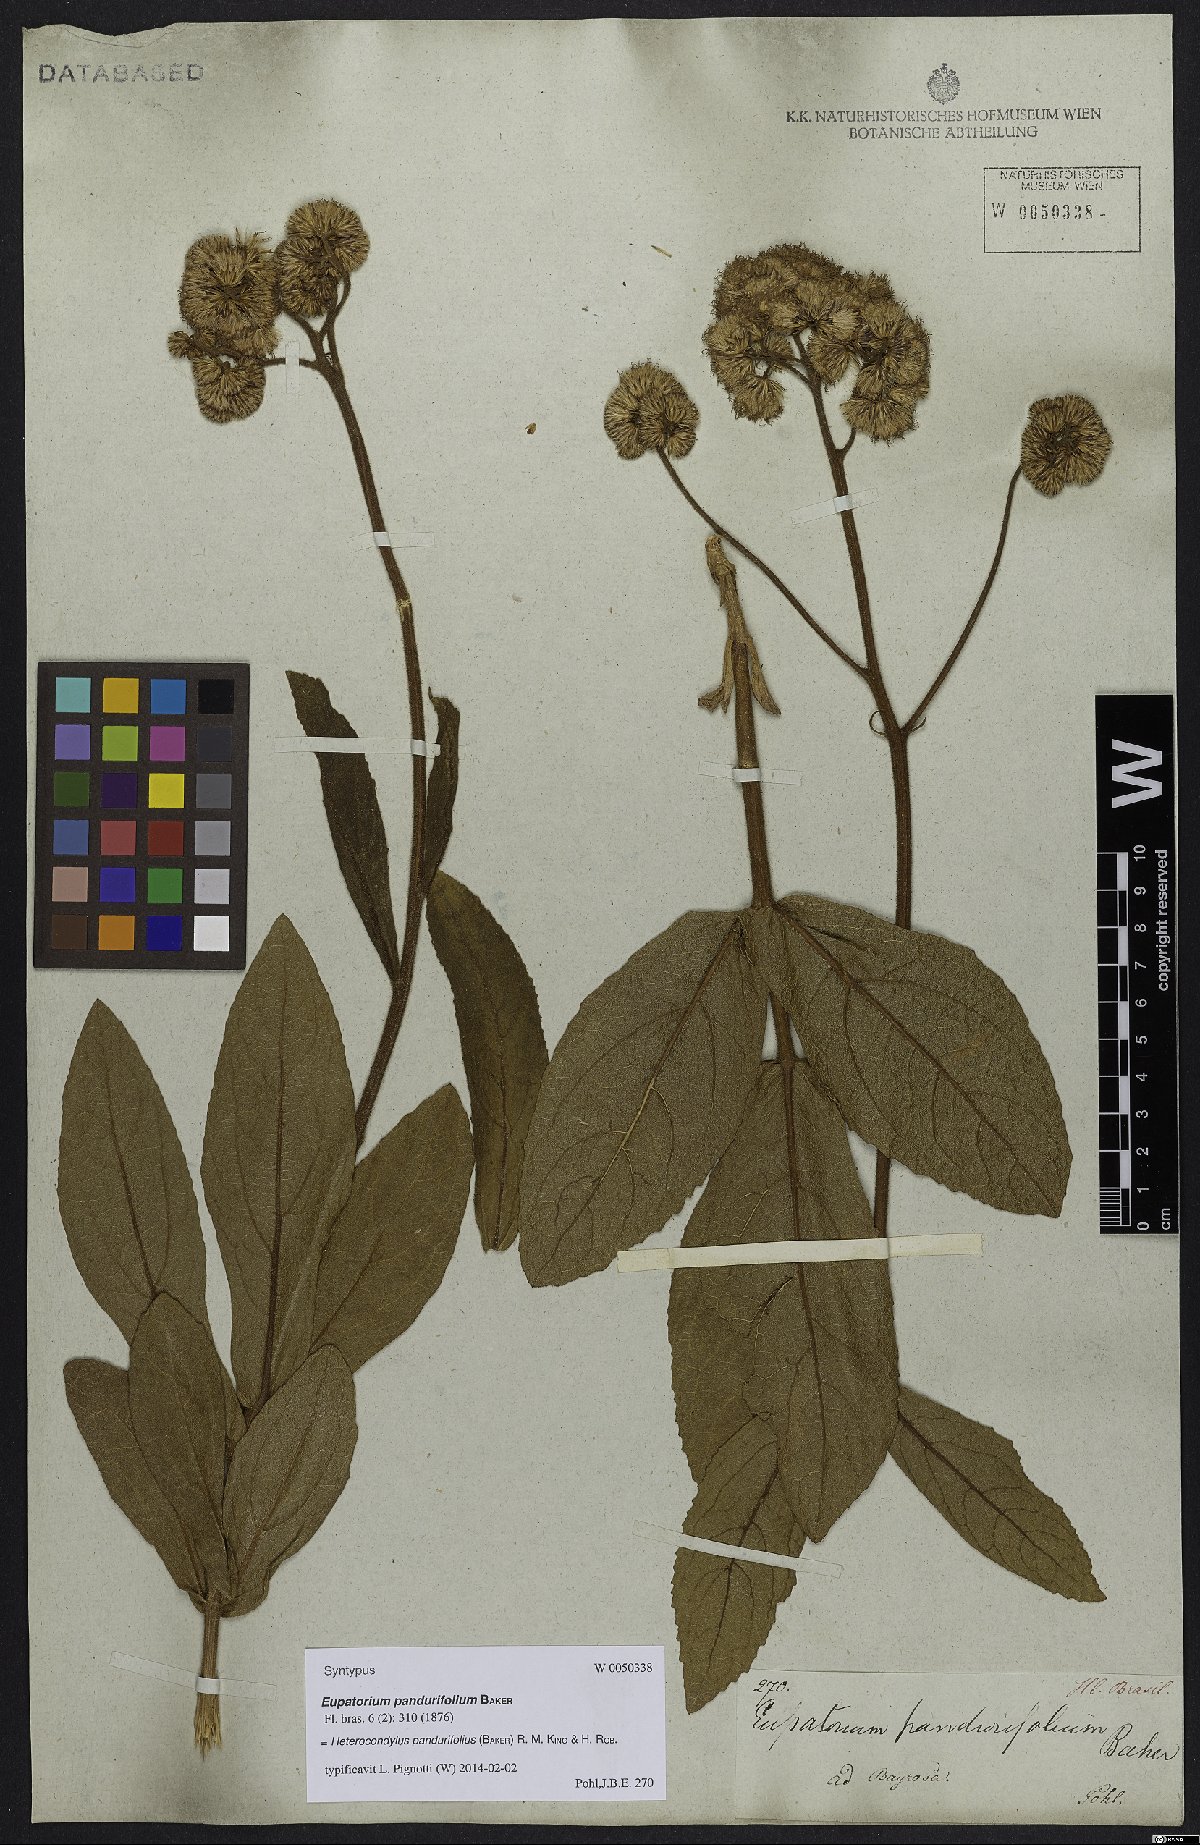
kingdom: Plantae
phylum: Tracheophyta
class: Magnoliopsida
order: Asterales
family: Asteraceae
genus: Heterocondylus
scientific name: Heterocondylus amphidictyus
